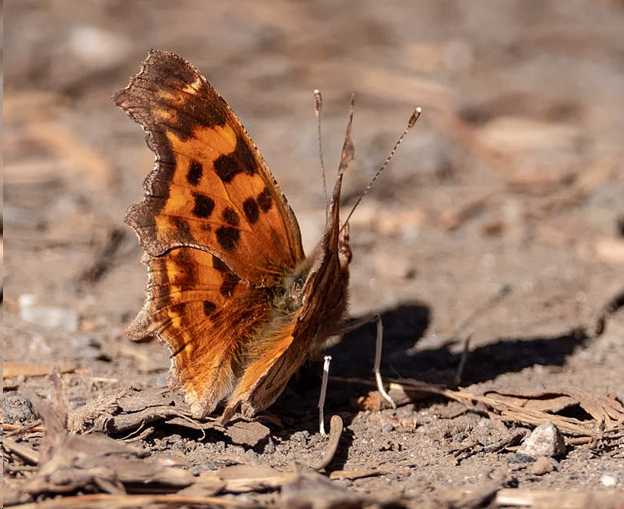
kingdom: Animalia
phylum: Arthropoda
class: Insecta
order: Lepidoptera
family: Nymphalidae
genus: Polygonia
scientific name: Polygonia satyrus
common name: Satyr Comma
